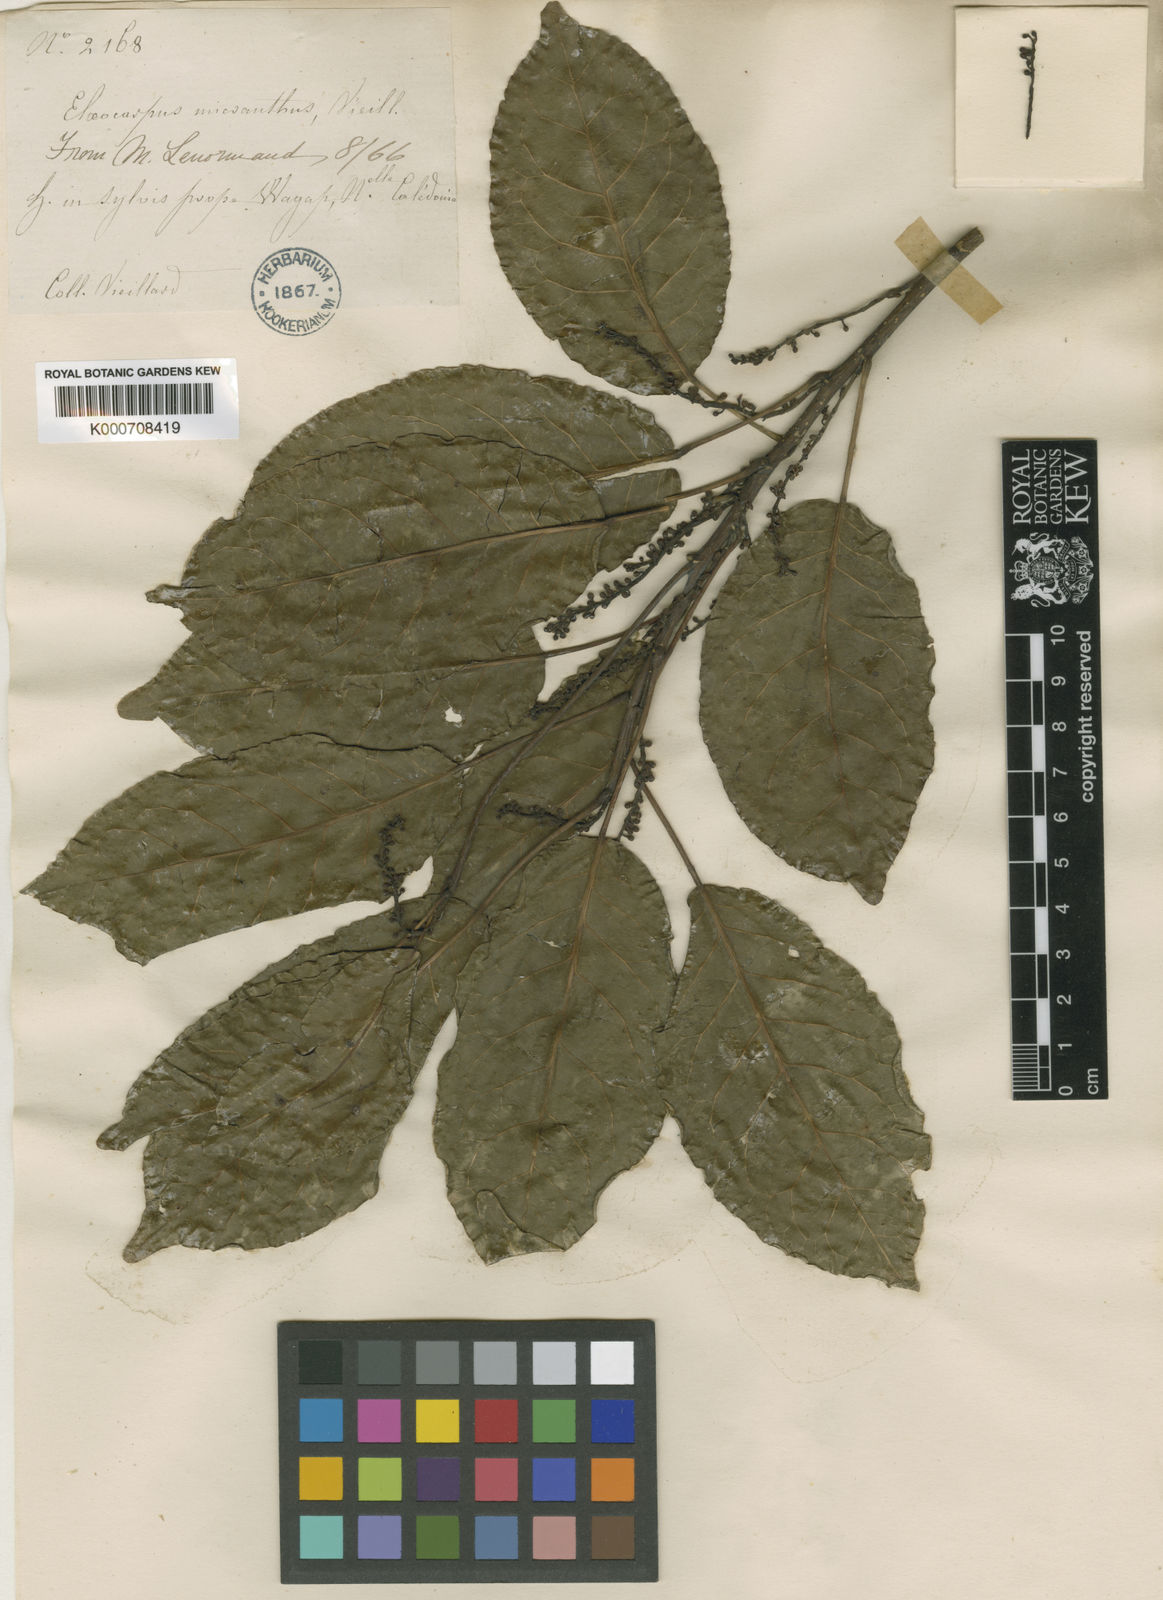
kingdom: Plantae
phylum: Tracheophyta
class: Magnoliopsida
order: Oxalidales
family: Elaeocarpaceae
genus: Elaeocarpus
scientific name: Elaeocarpus rotundifolius
